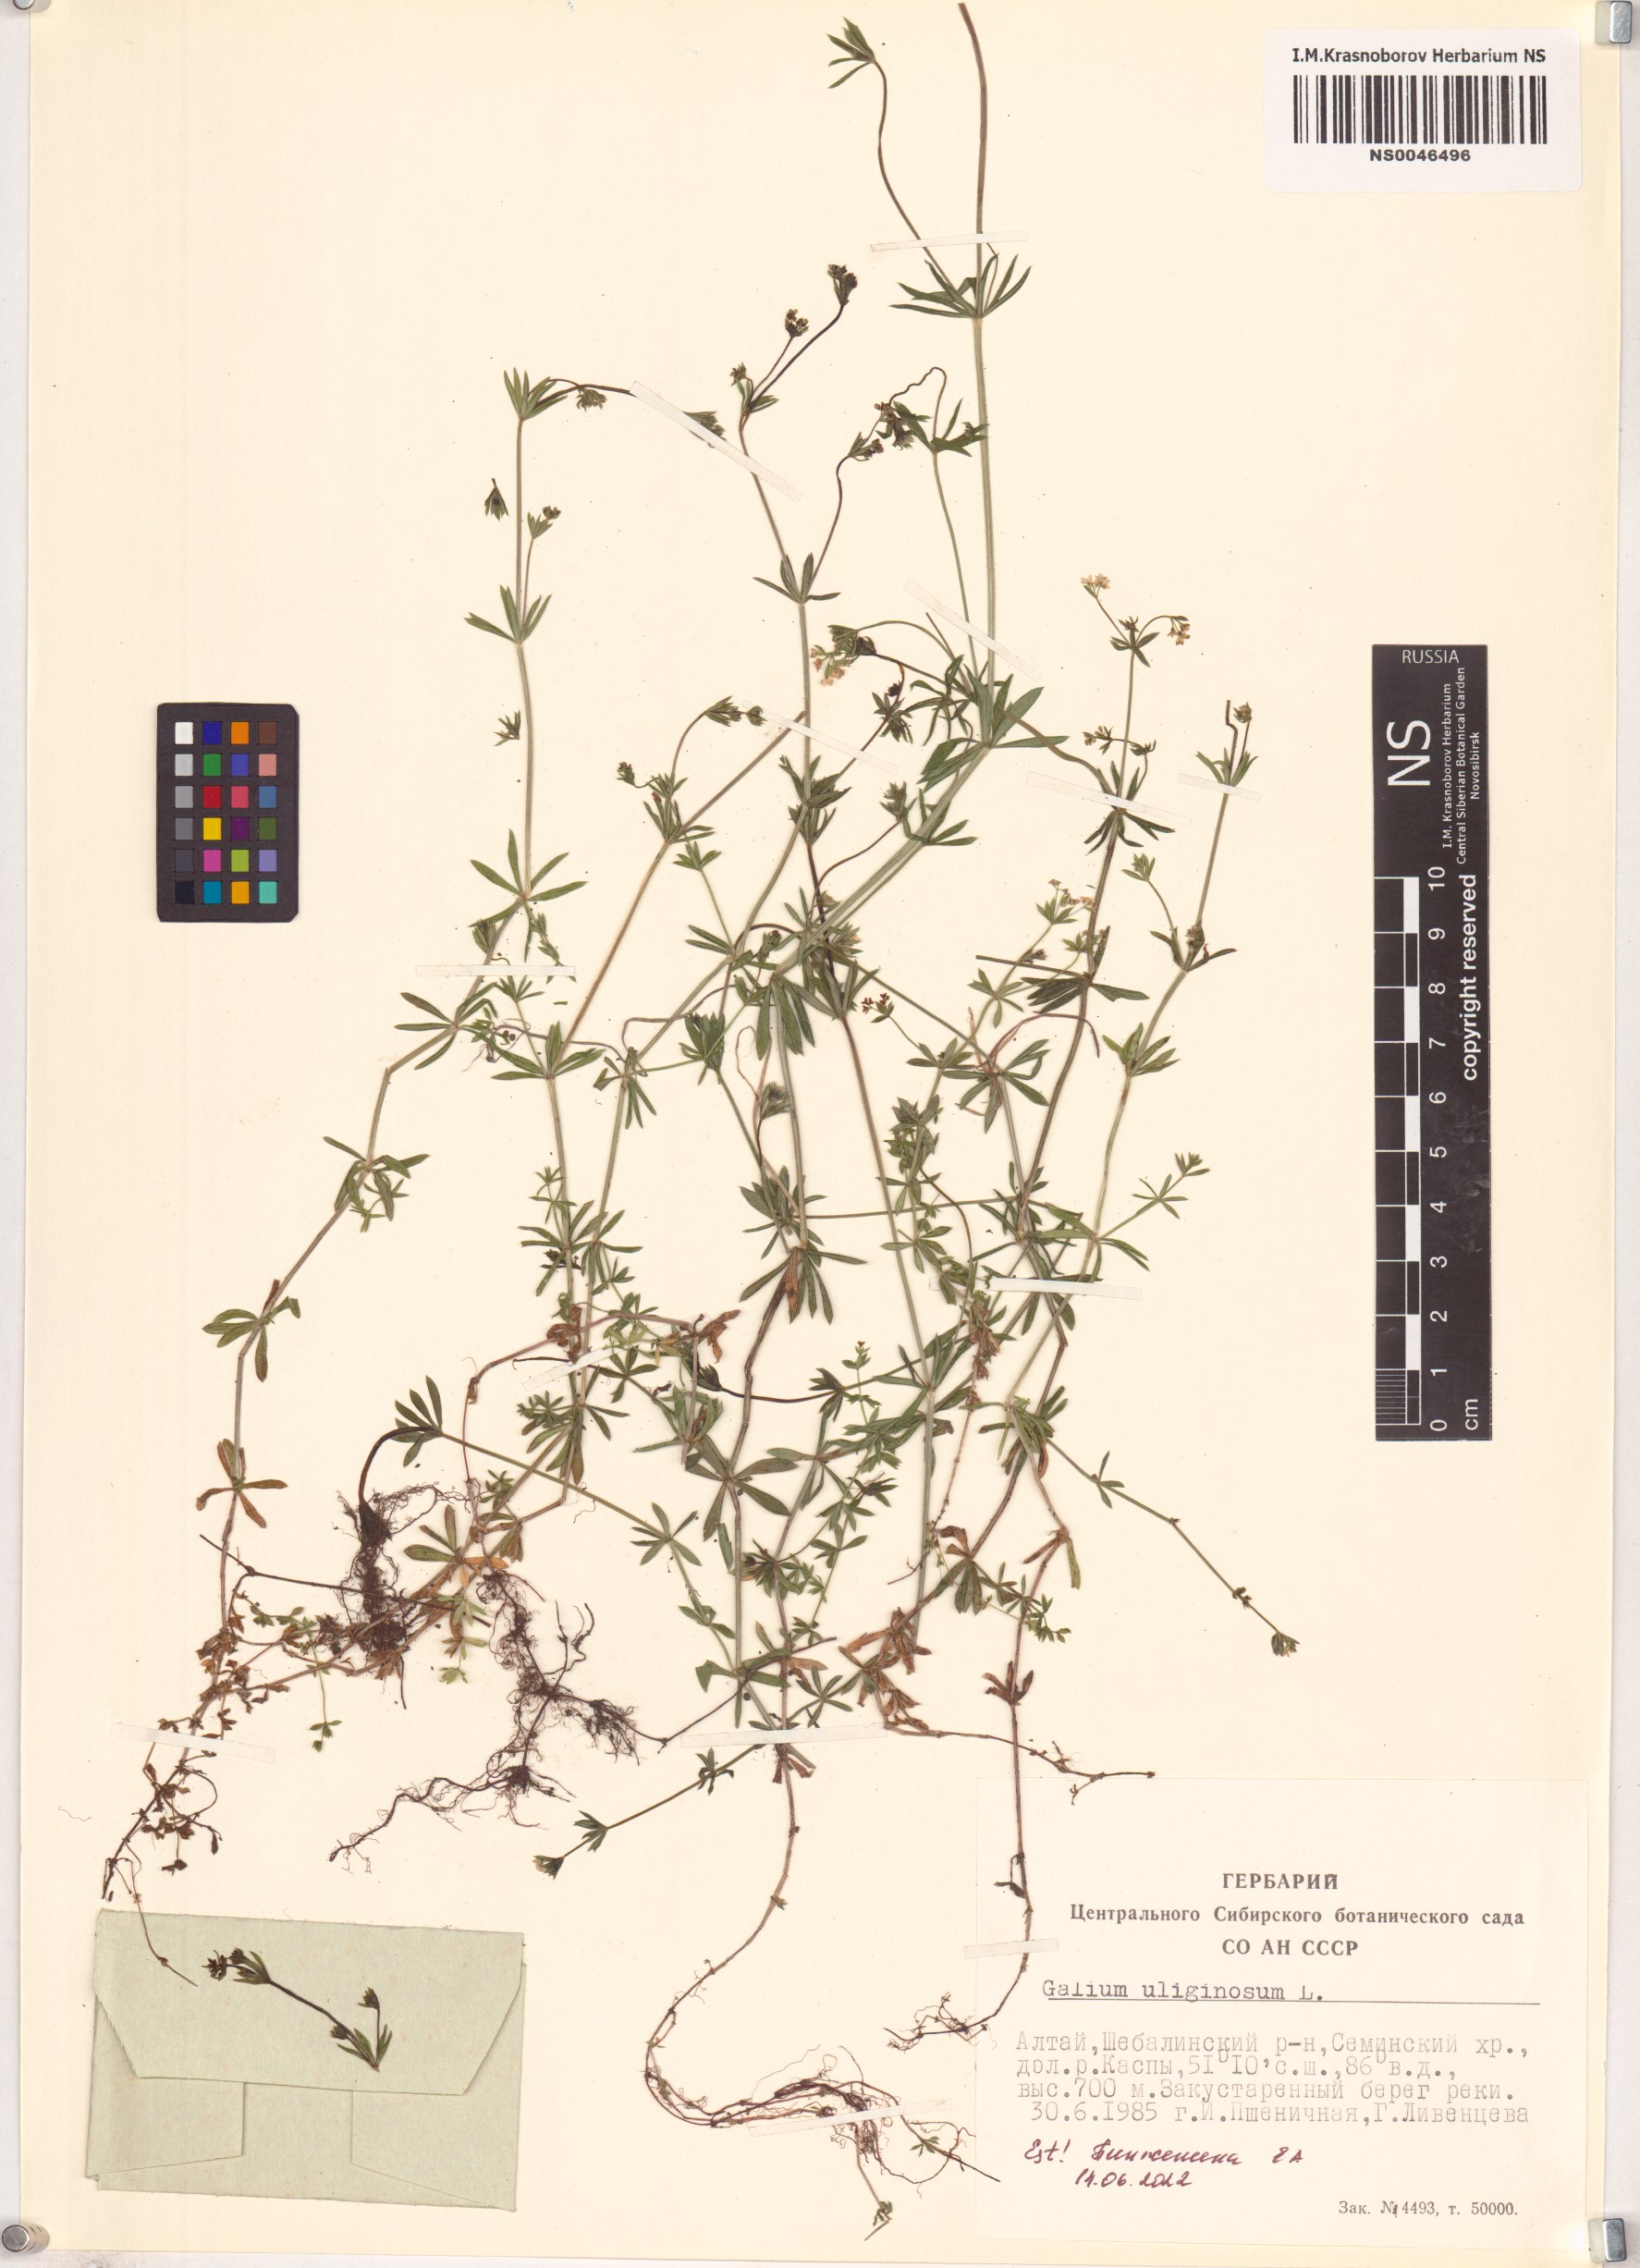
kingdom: Plantae
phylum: Tracheophyta
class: Magnoliopsida
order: Gentianales
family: Rubiaceae
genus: Galium
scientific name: Galium uliginosum
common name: Fen bedstraw
